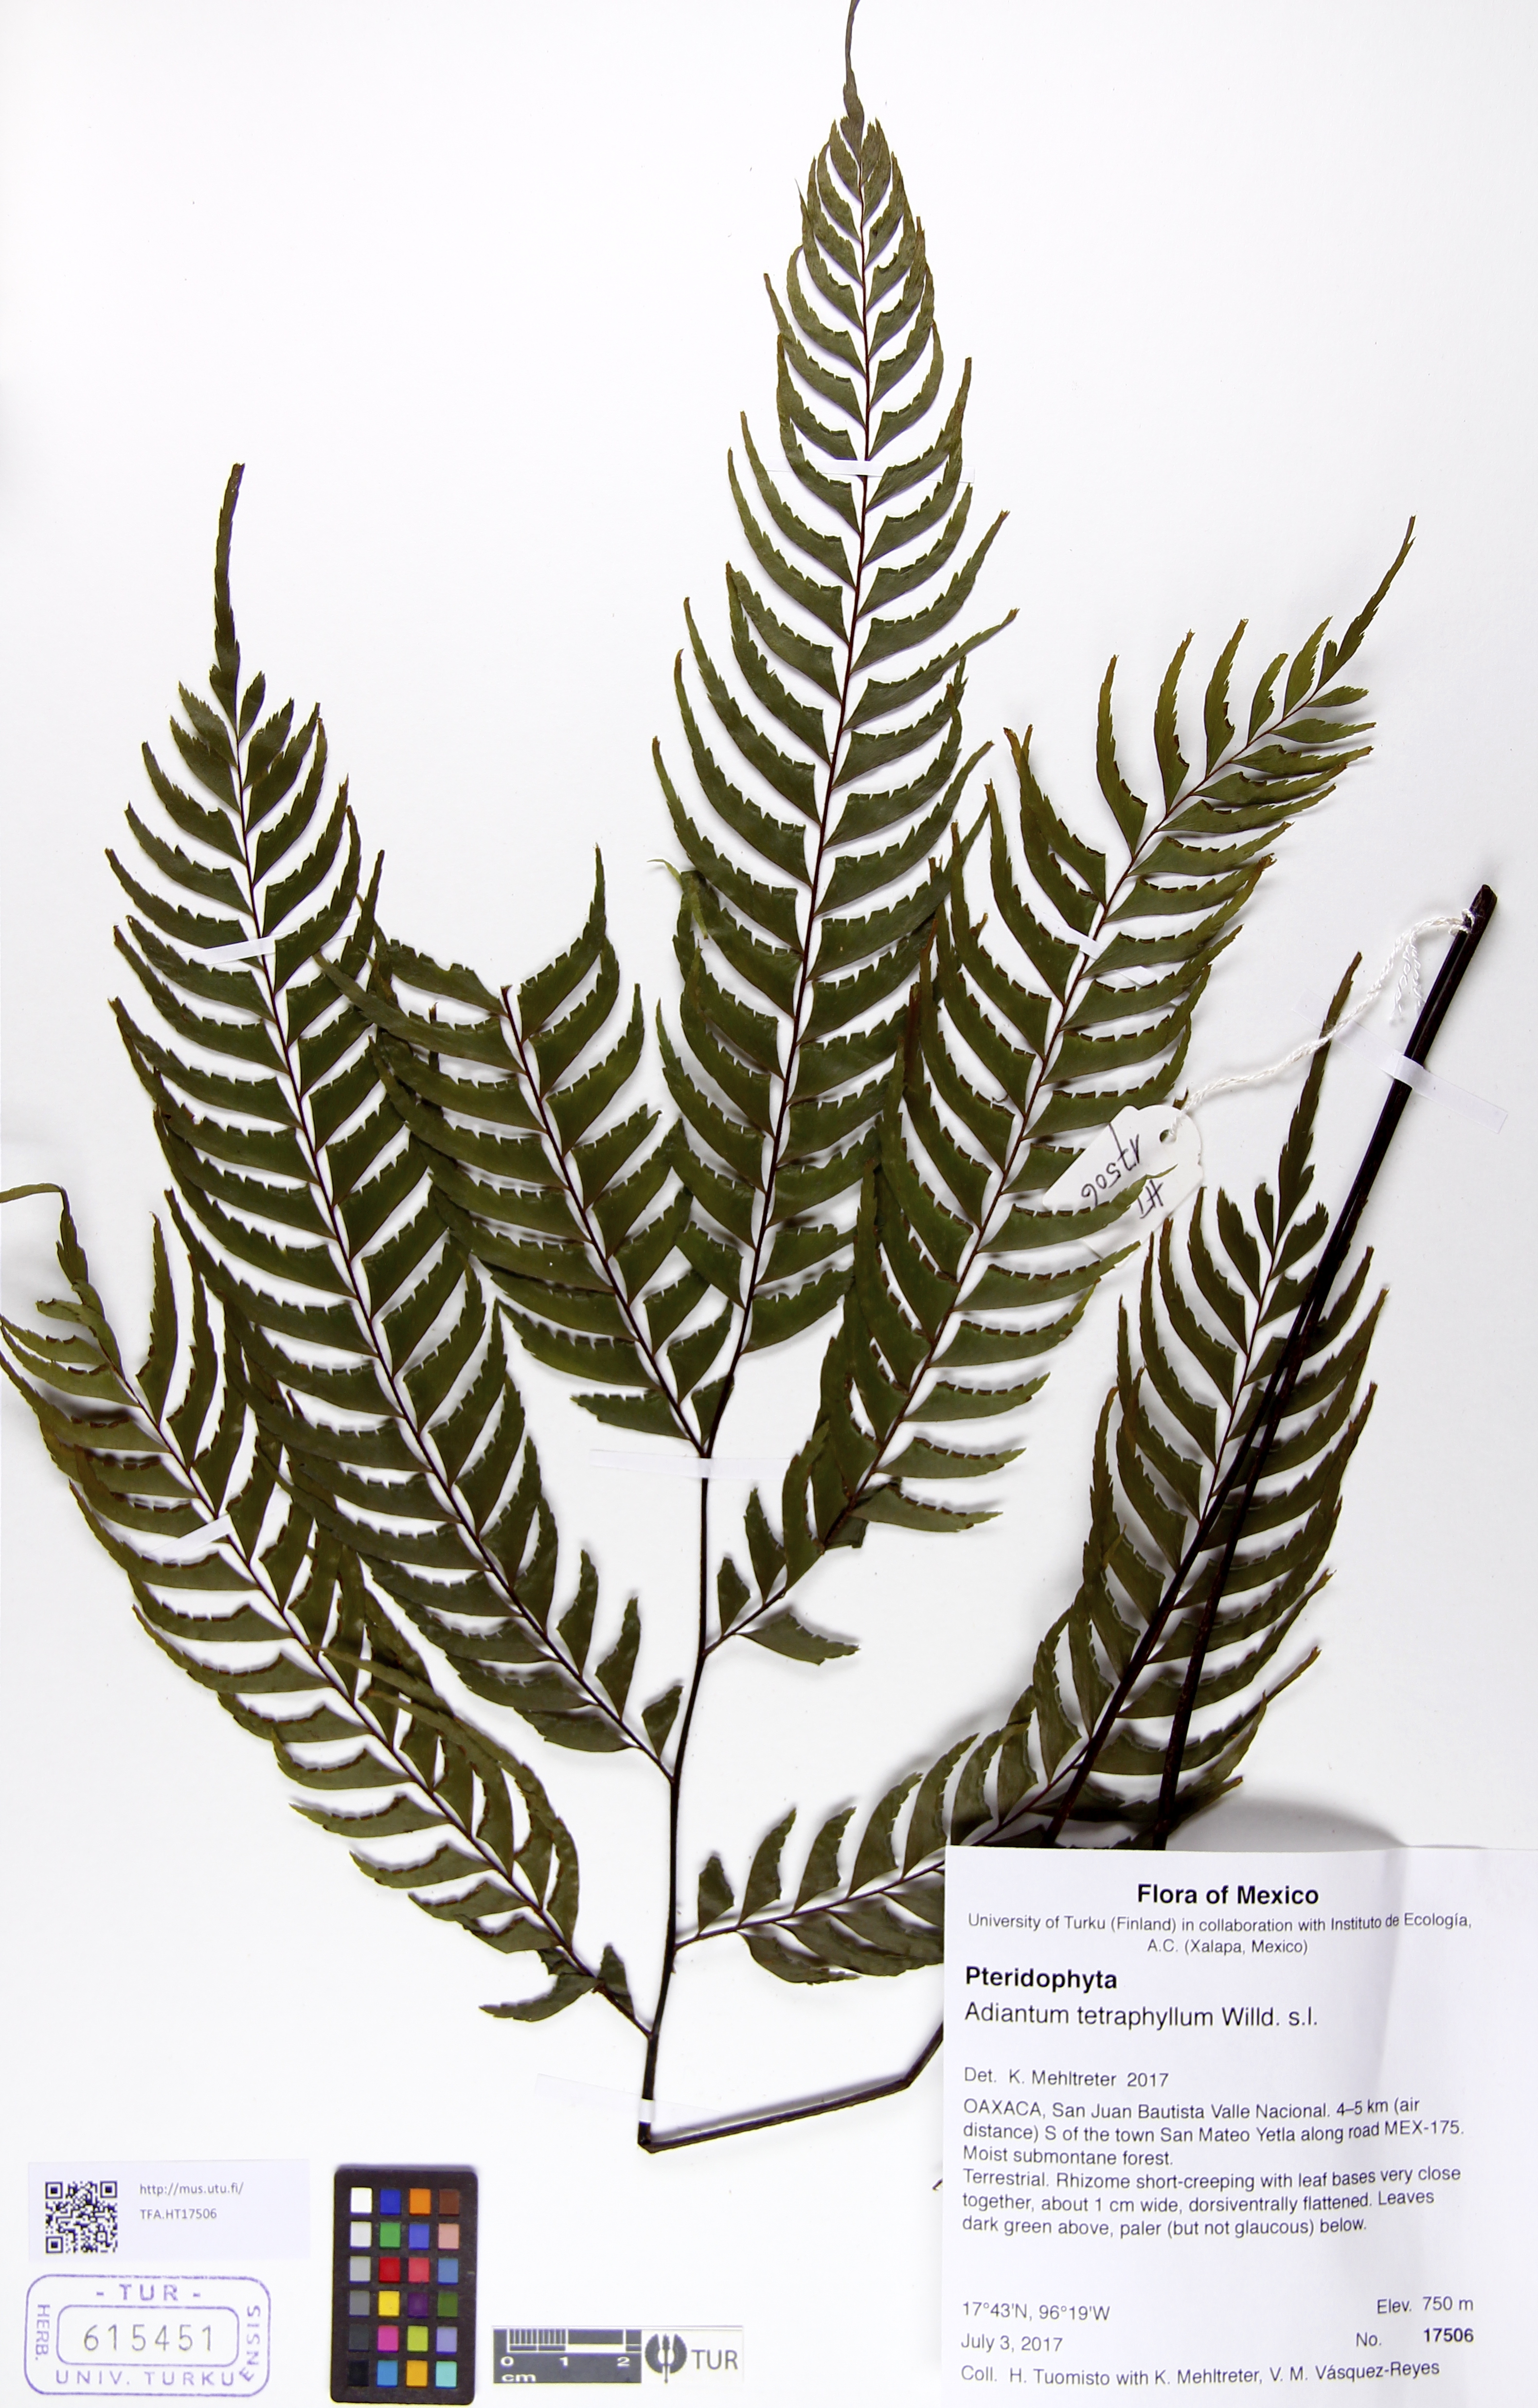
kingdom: Plantae
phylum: Tracheophyta
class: Polypodiopsida
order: Polypodiales
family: Pteridaceae
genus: Adiantum
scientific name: Adiantum tetraphyllum
